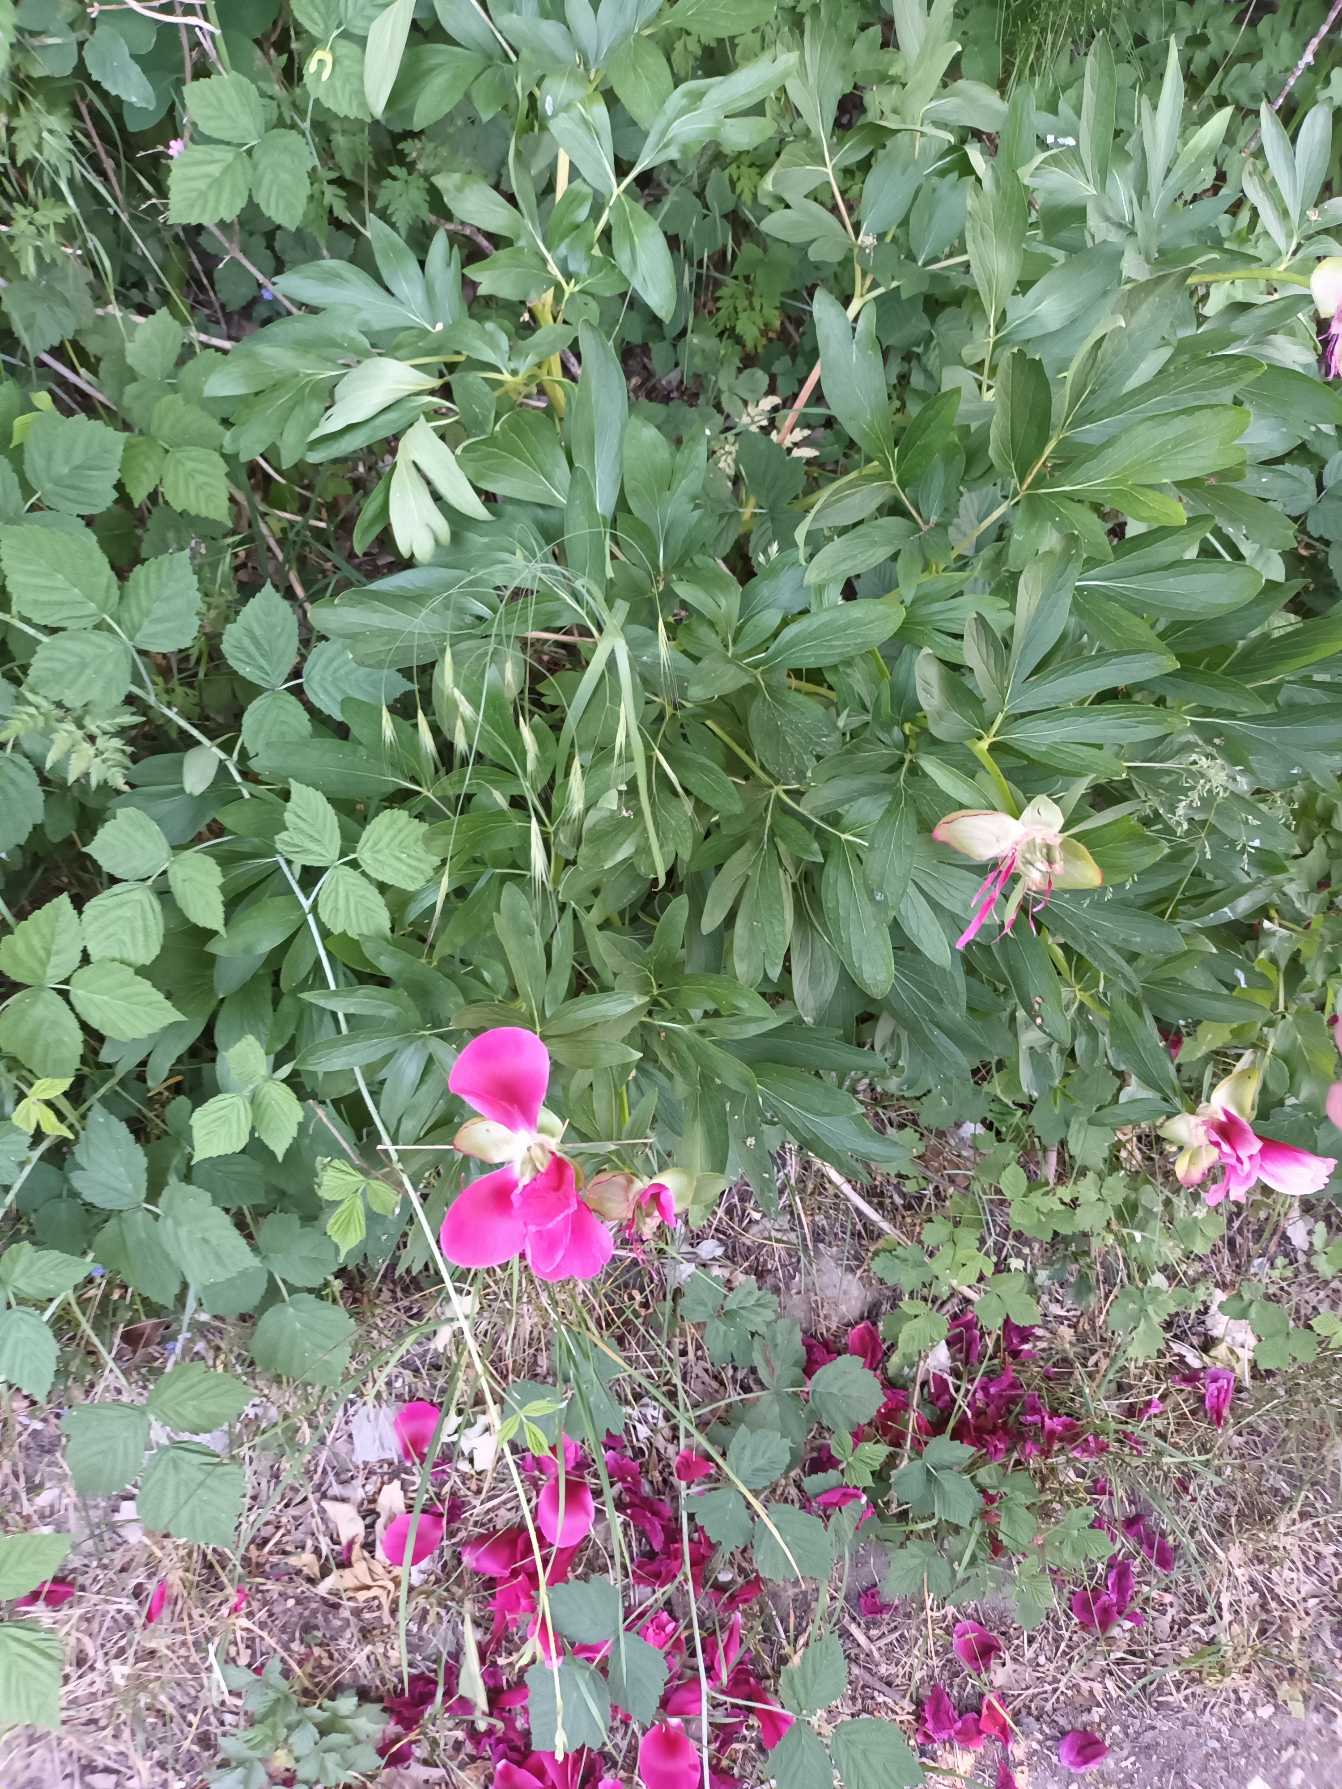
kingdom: Plantae
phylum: Tracheophyta
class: Magnoliopsida
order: Saxifragales
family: Paeoniaceae
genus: Paeonia
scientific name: Paeonia officinalis
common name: Bonderose
